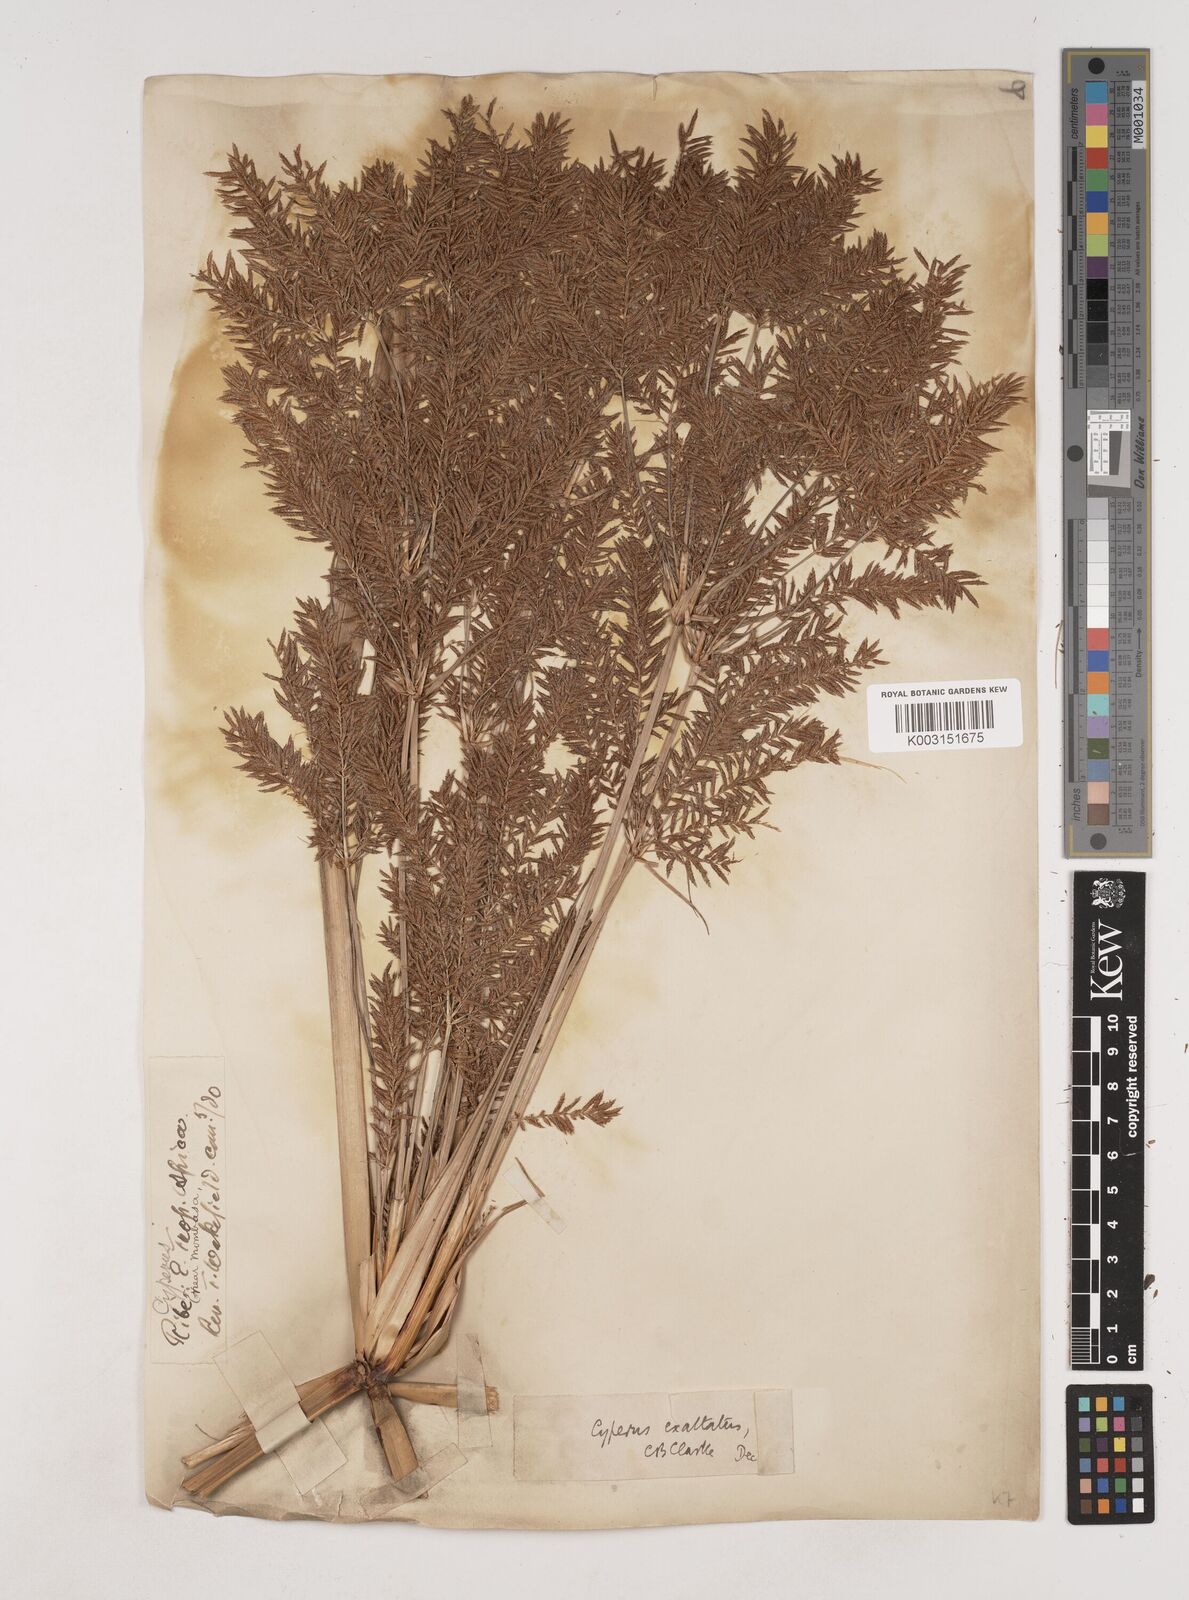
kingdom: Plantae
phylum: Tracheophyta
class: Liliopsida
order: Poales
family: Cyperaceae
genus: Cyperus
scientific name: Cyperus exaltatus
